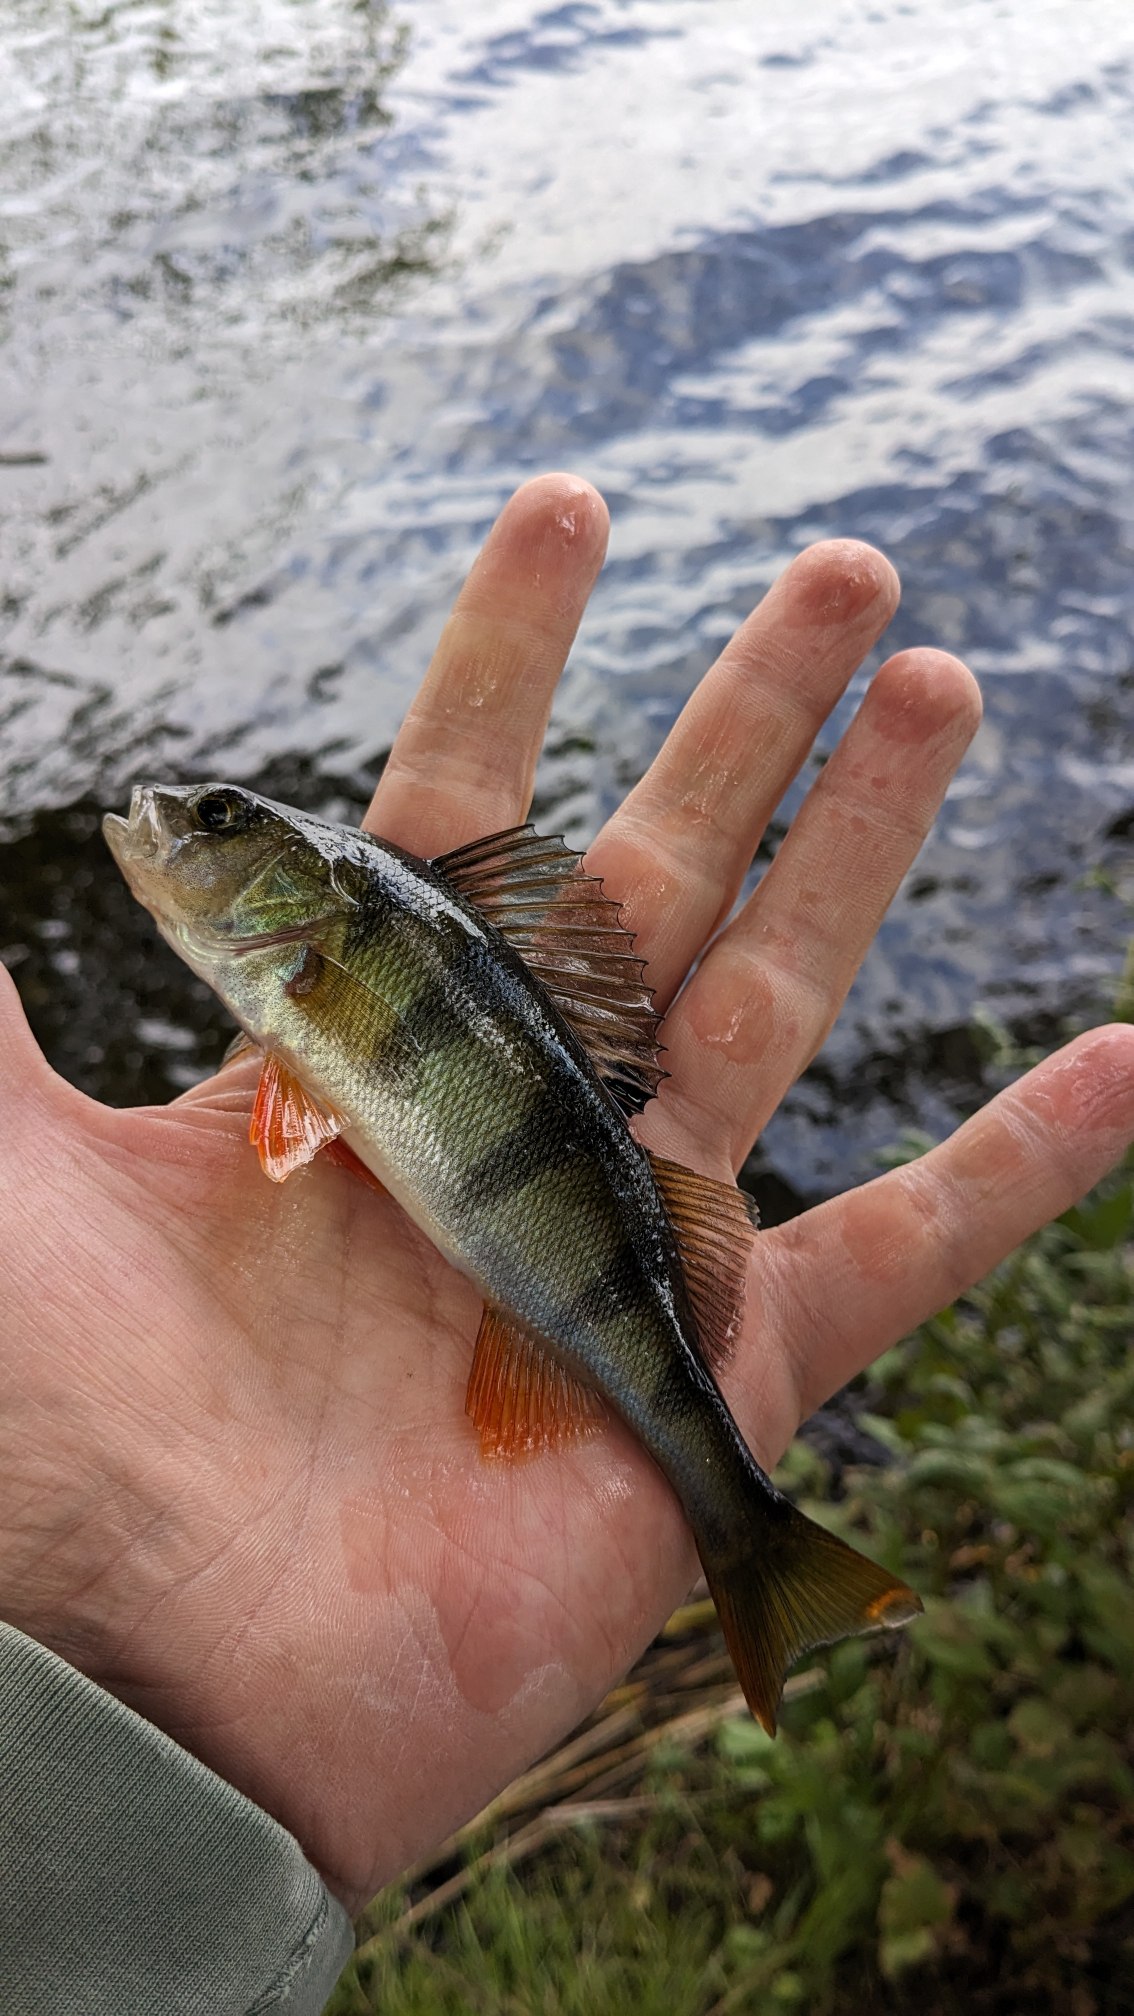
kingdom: Animalia
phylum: Chordata
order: Perciformes
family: Percidae
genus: Perca
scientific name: Perca fluviatilis
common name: Aborre
